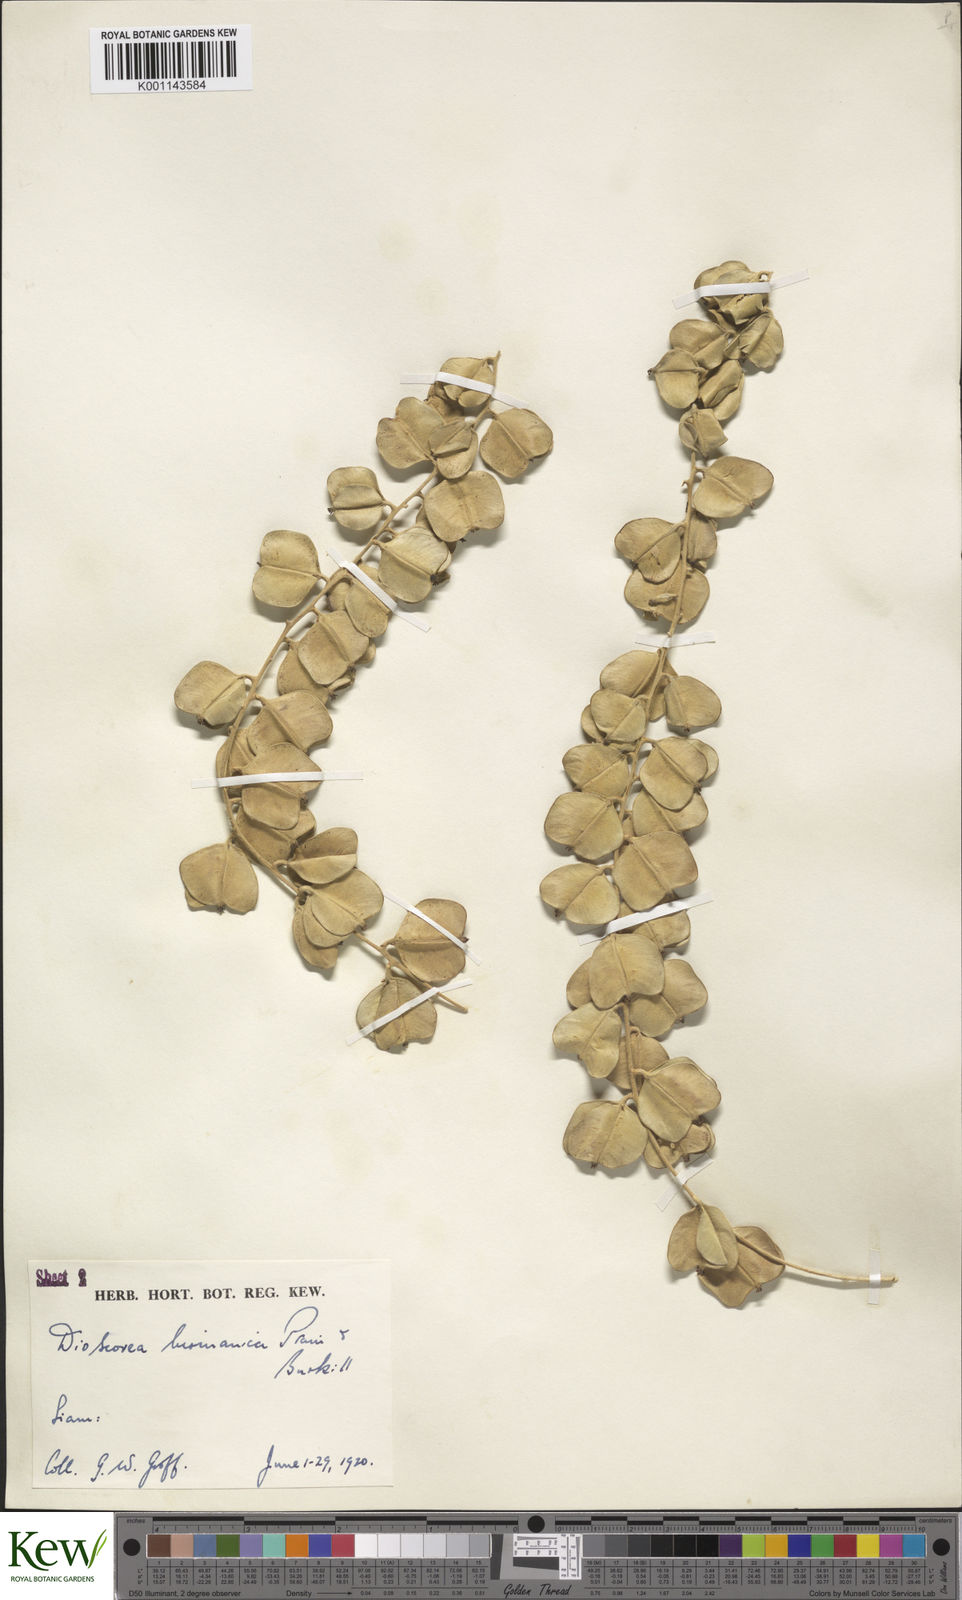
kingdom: Plantae
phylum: Tracheophyta
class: Liliopsida
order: Dioscoreales
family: Dioscoreaceae
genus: Dioscorea
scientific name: Dioscorea birmanica
